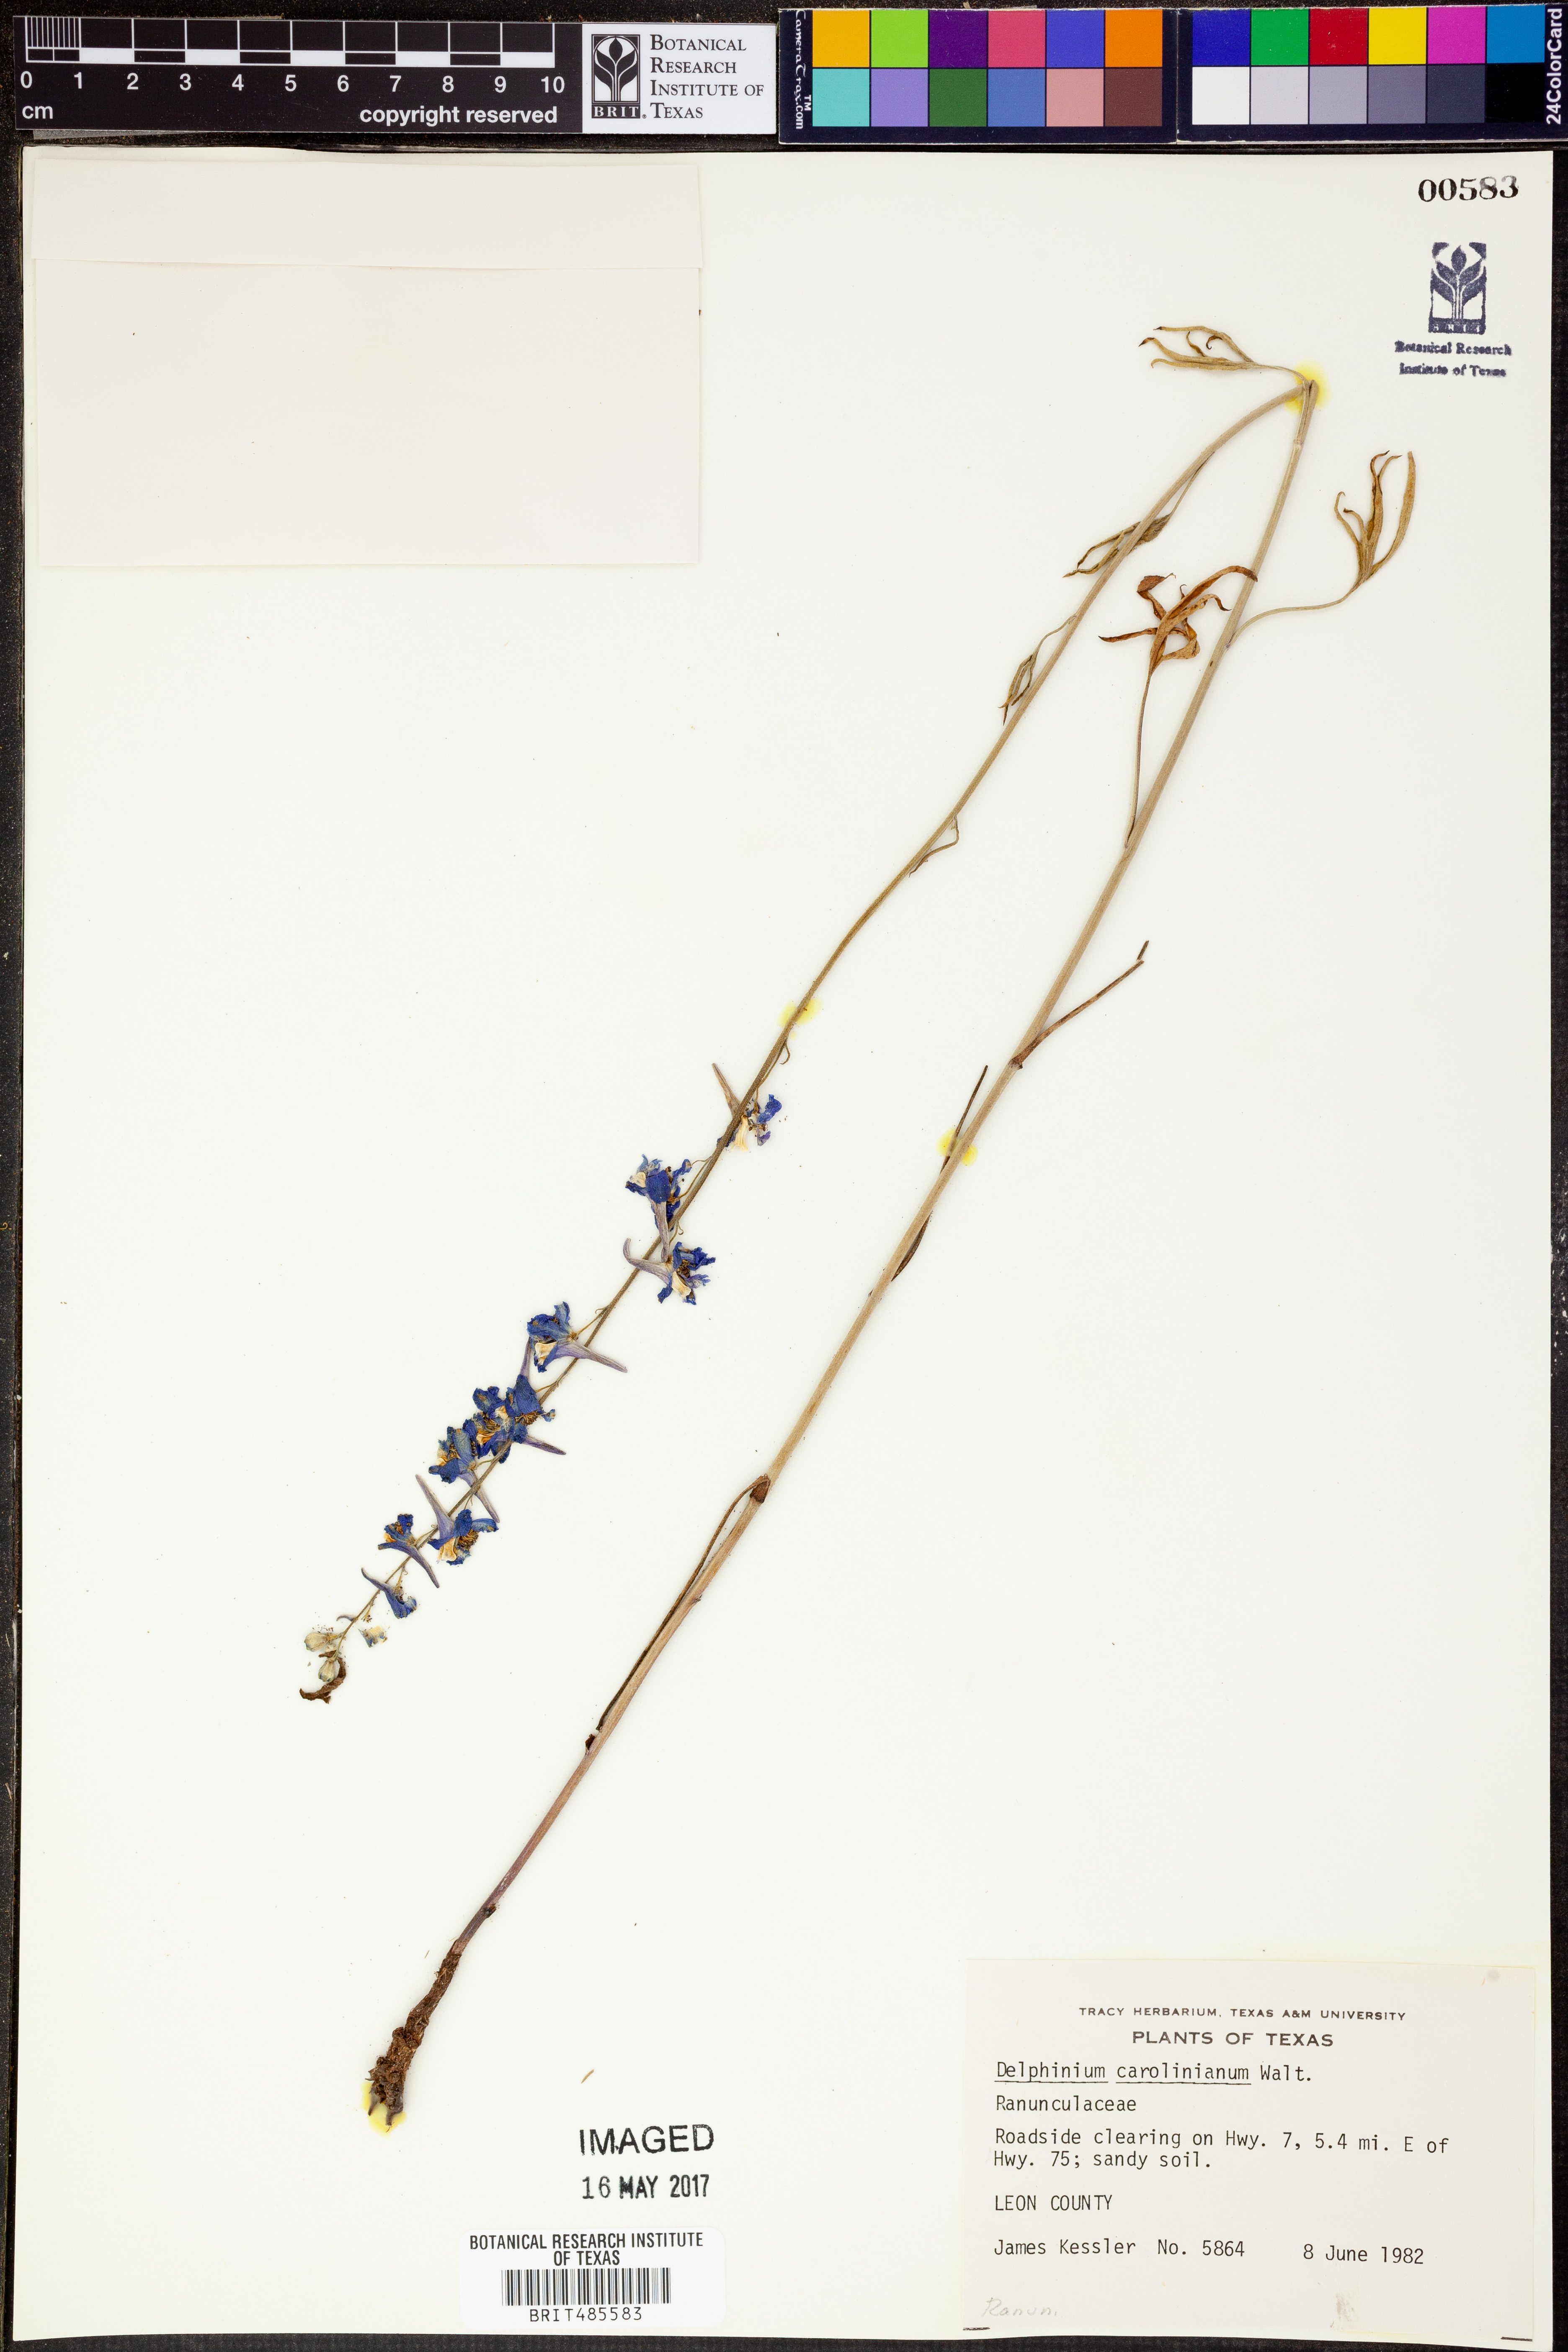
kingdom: Plantae
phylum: Tracheophyta
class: Magnoliopsida
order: Ranunculales
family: Ranunculaceae
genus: Delphinium
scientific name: Delphinium carolinianum
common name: Carolina larkspur
